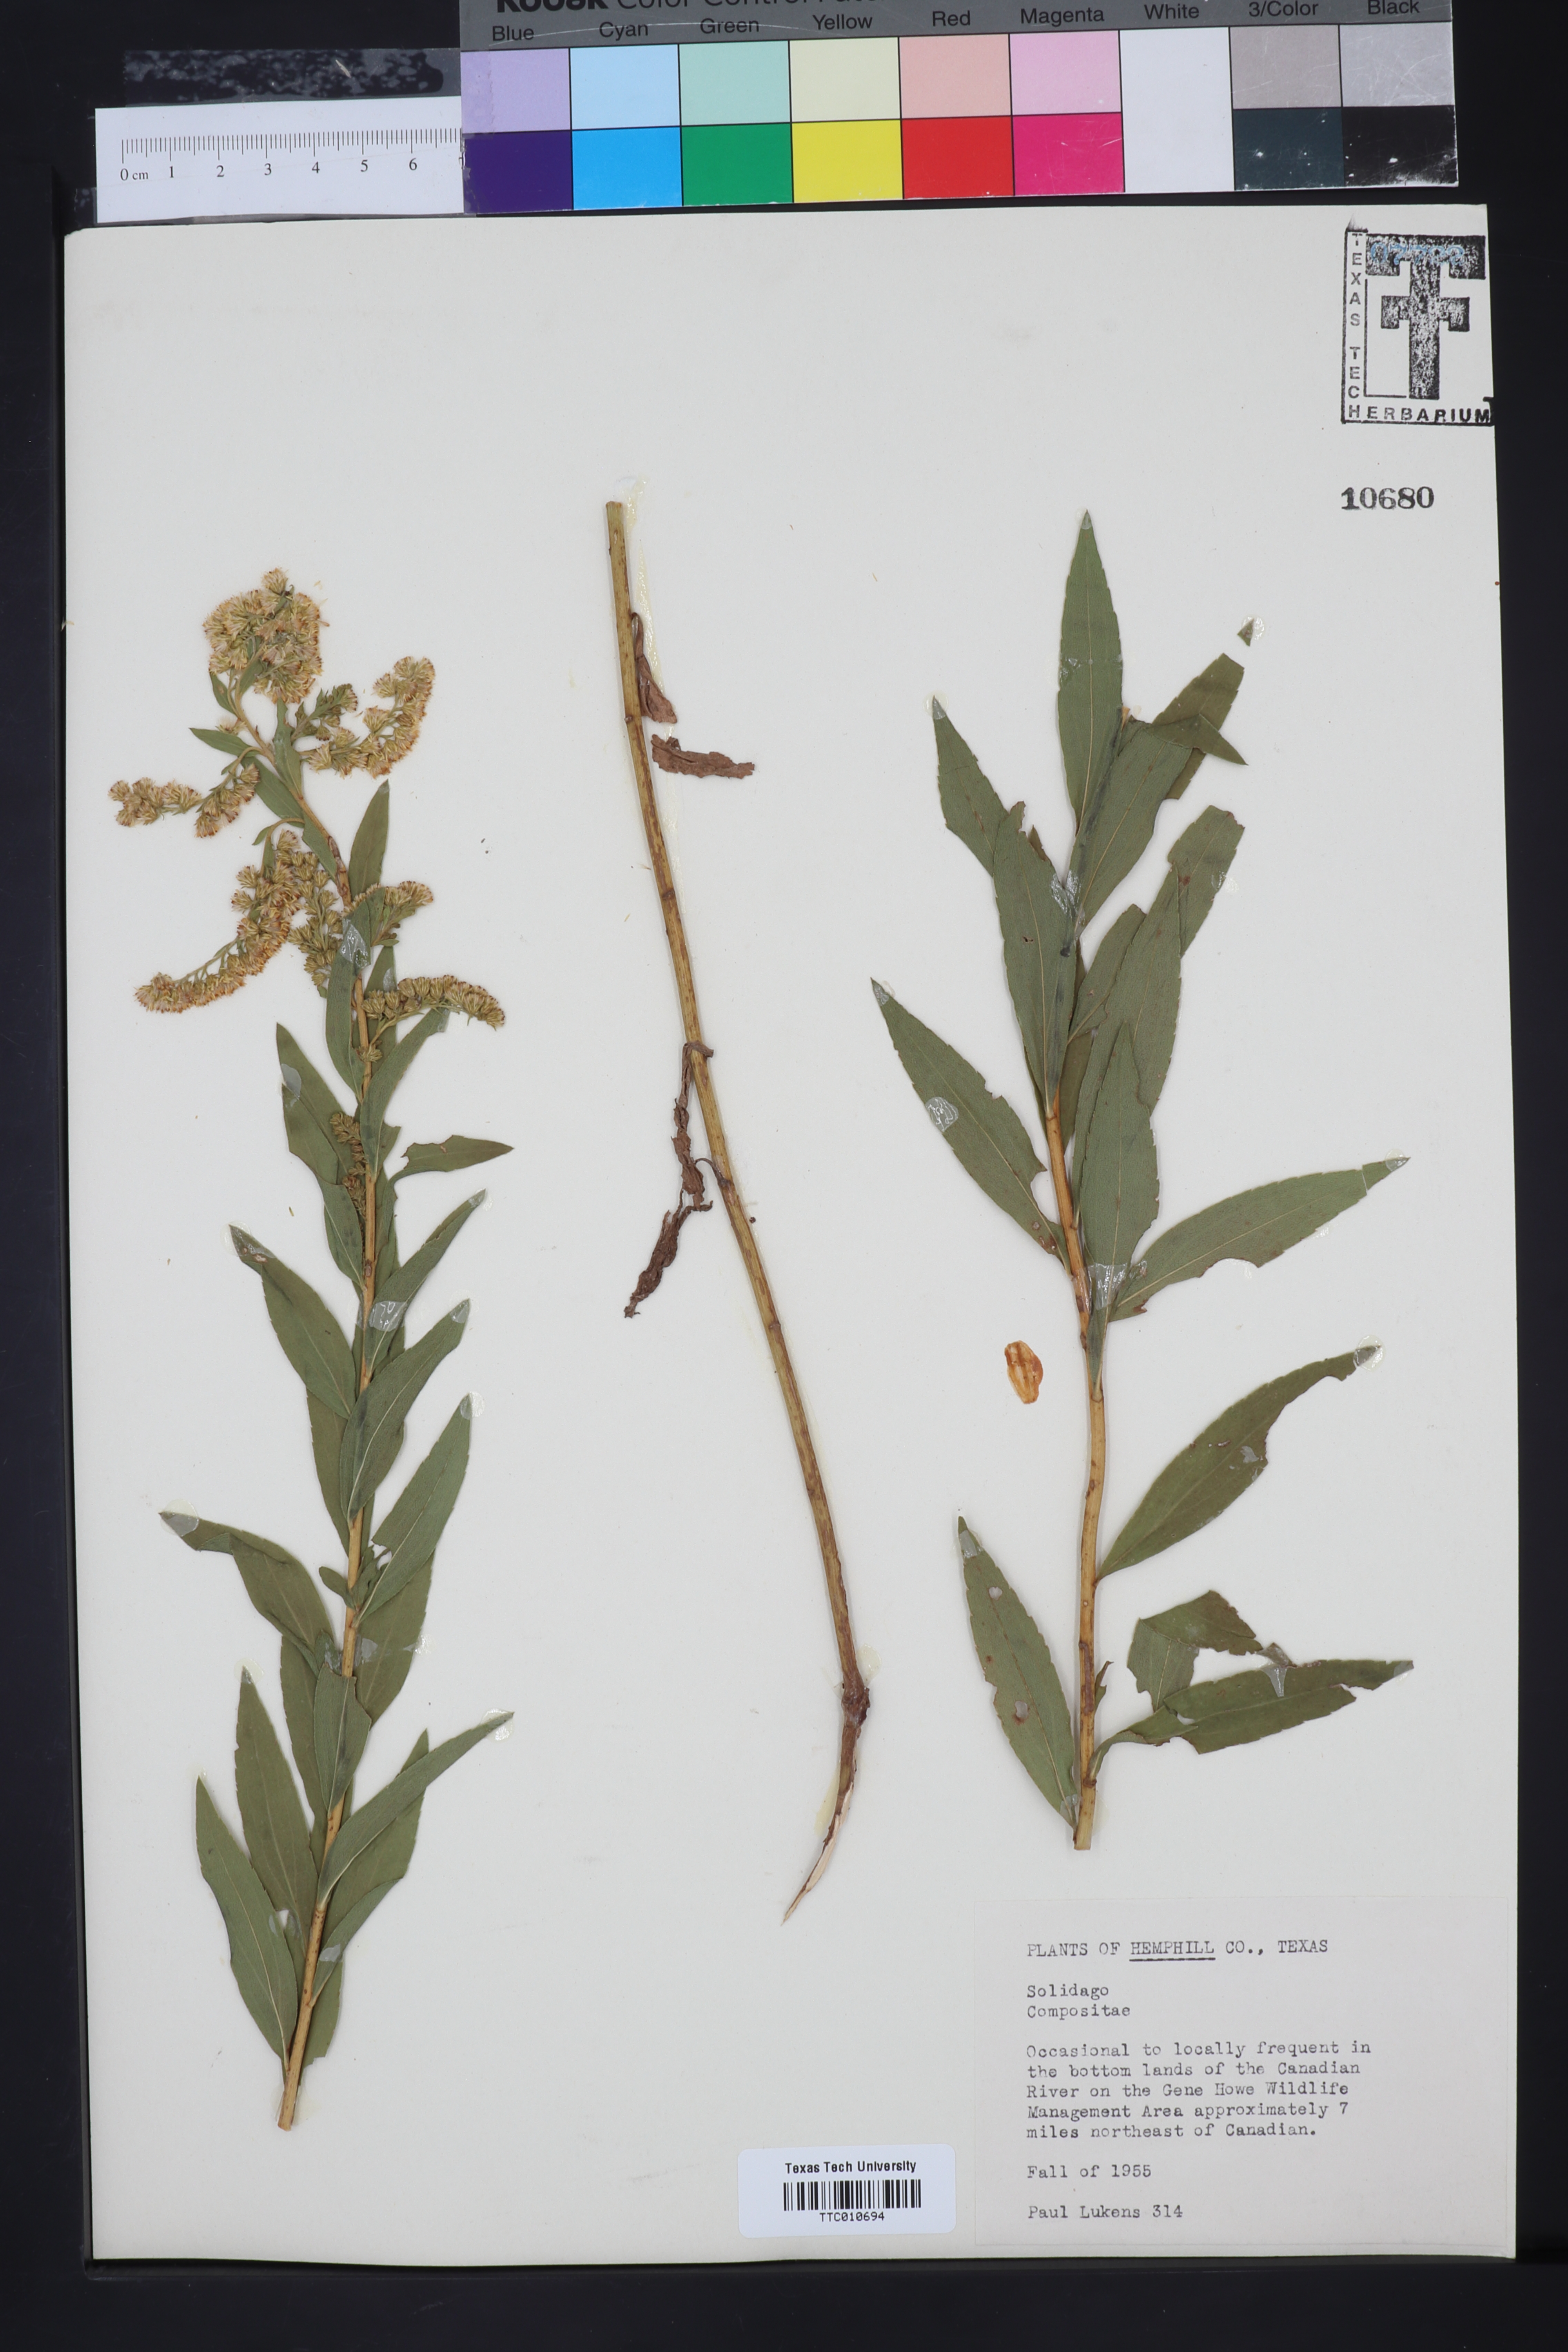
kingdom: Plantae
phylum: Tracheophyta
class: Magnoliopsida
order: Asterales
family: Asteraceae
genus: Solidago
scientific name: Solidago
